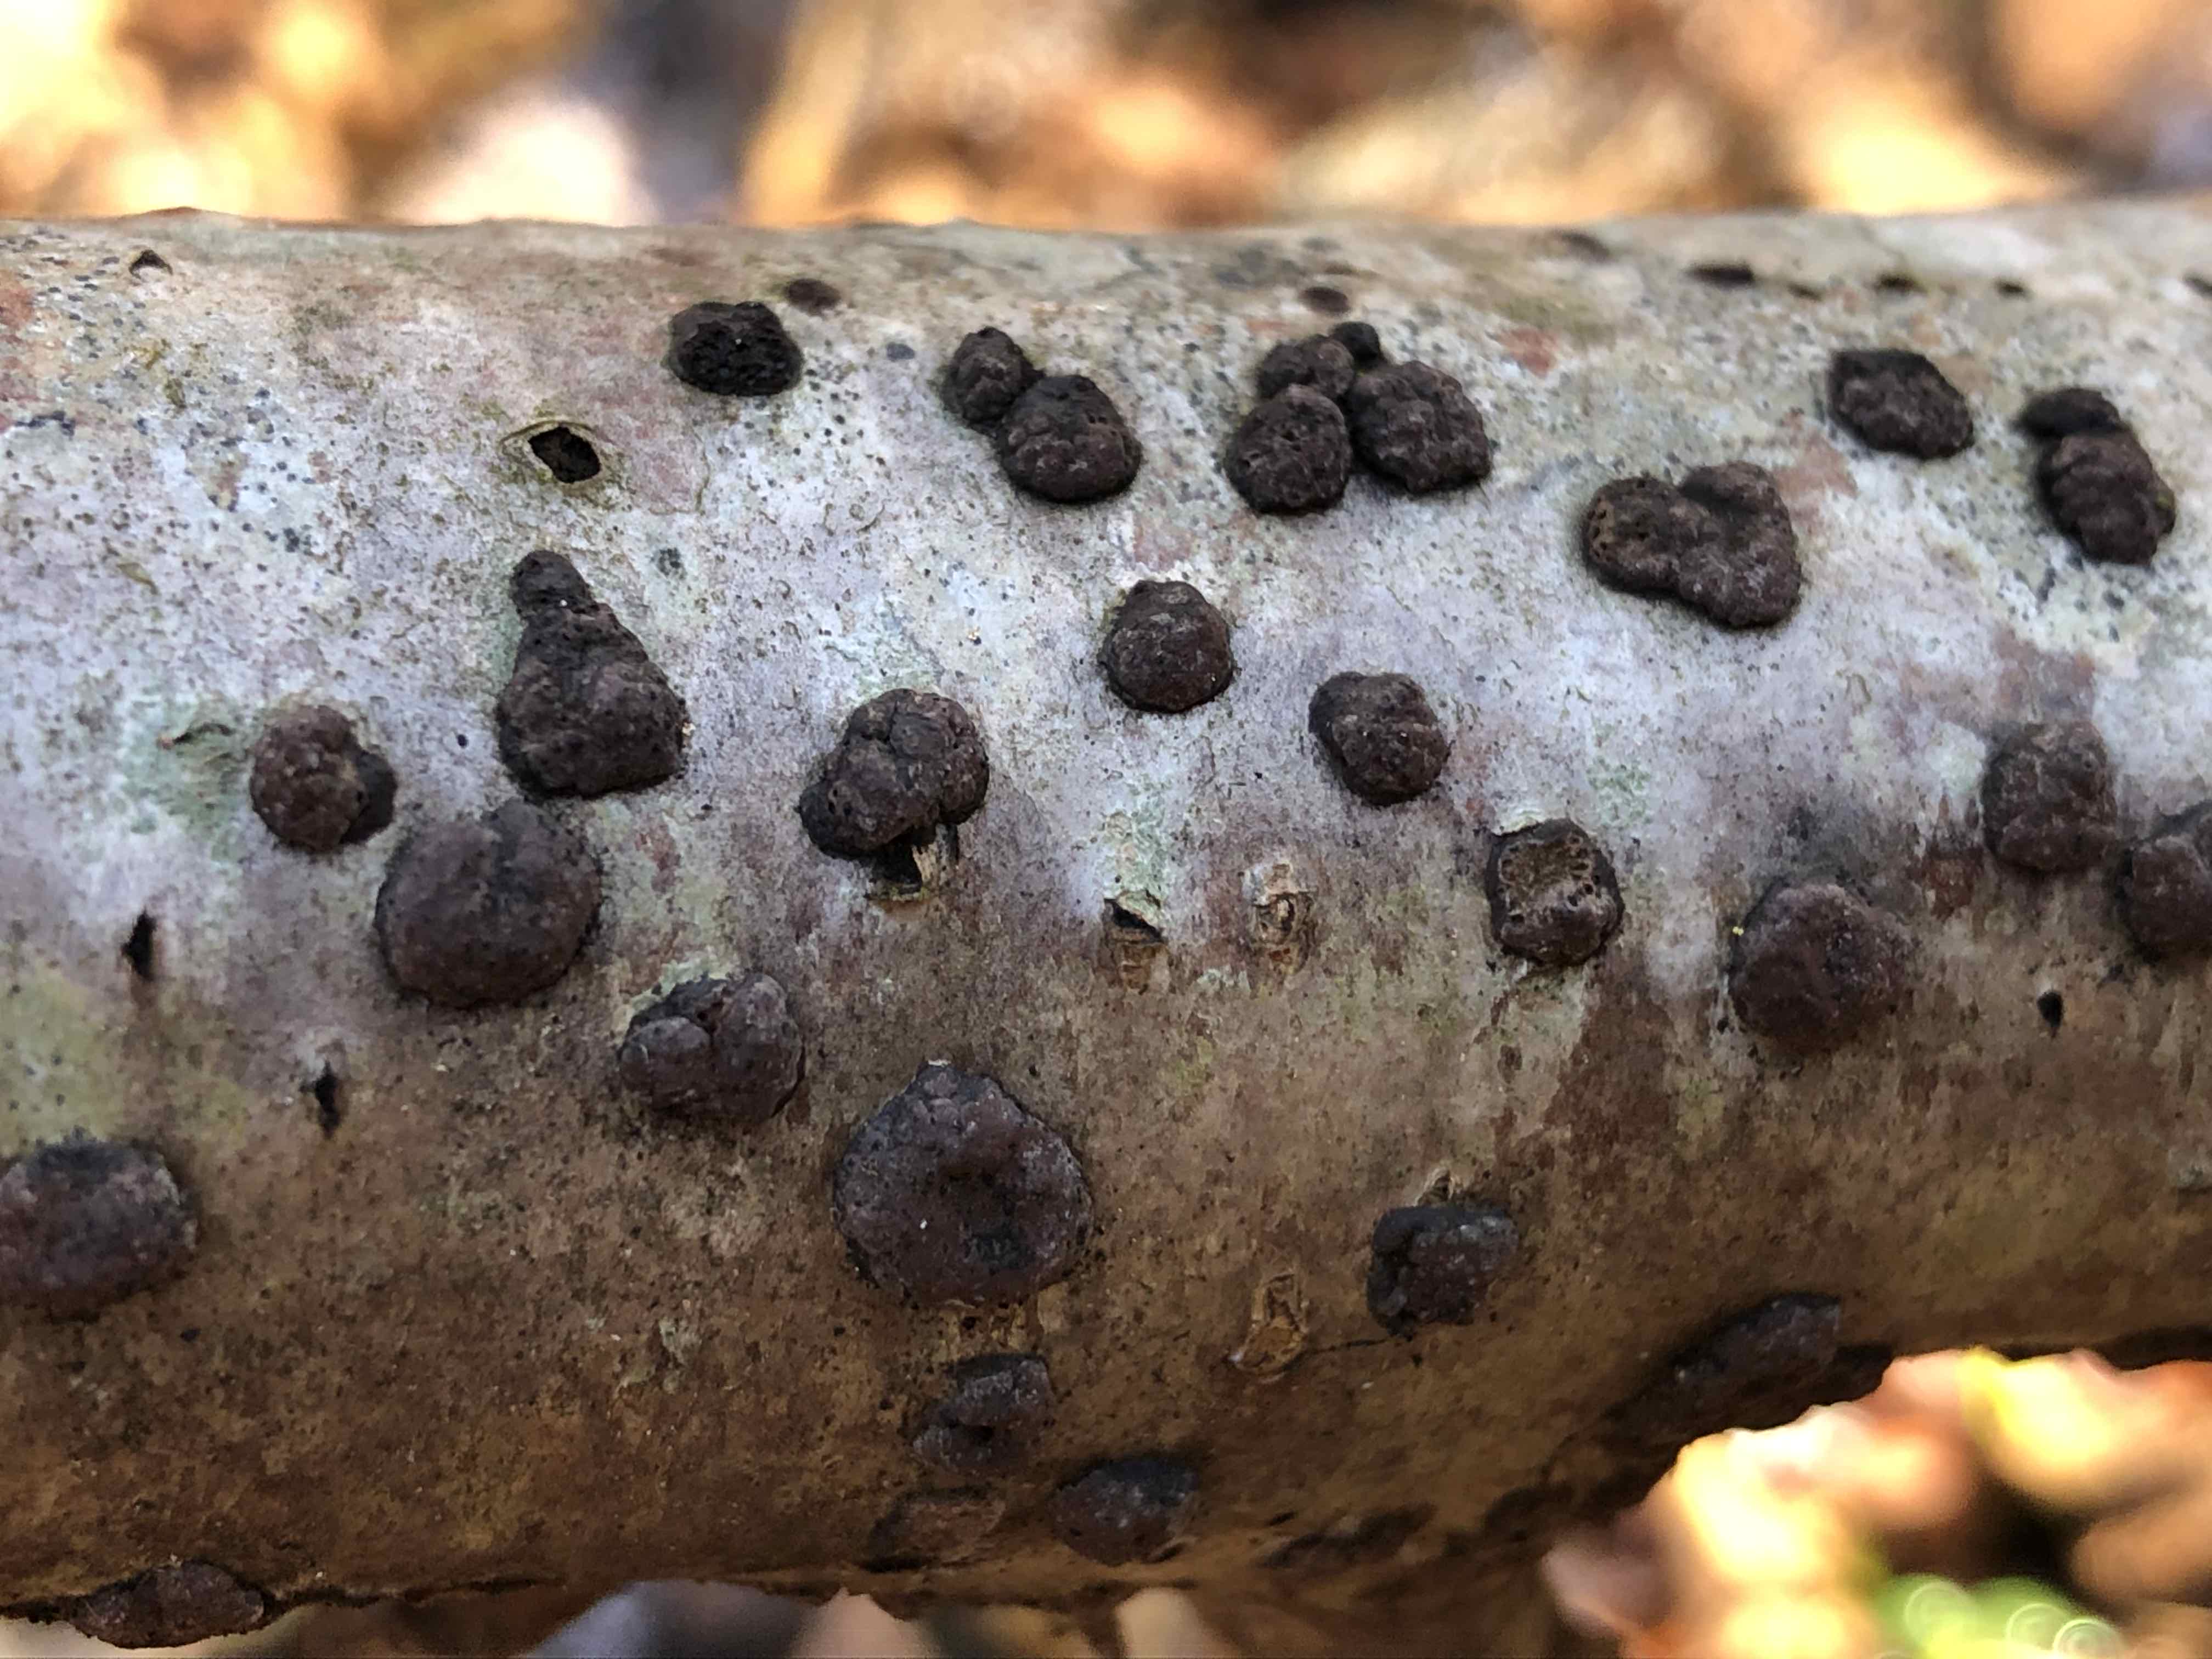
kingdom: Fungi
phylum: Ascomycota
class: Sordariomycetes
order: Xylariales
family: Hypoxylaceae
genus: Hypoxylon
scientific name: Hypoxylon fuscum
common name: kegleformet kulbær
